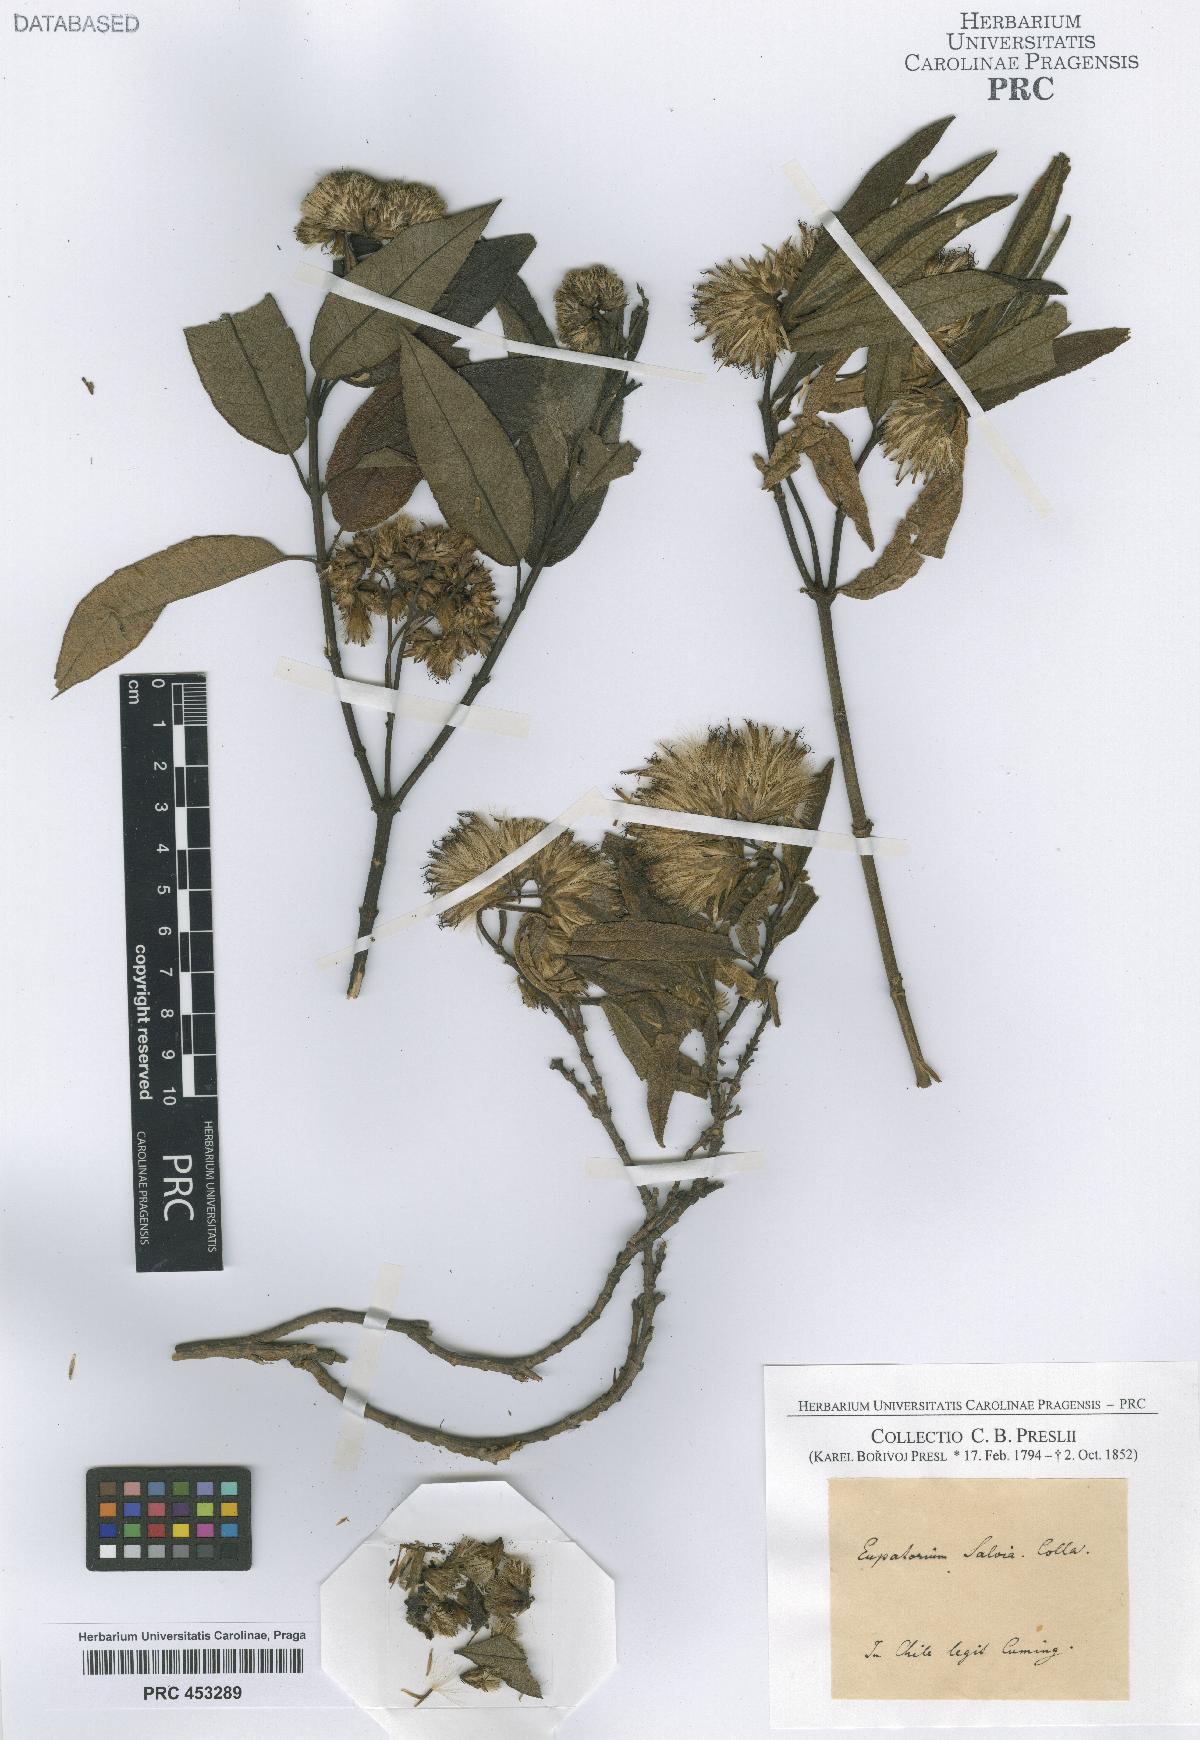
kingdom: Plantae
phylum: Tracheophyta
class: Magnoliopsida
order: Asterales
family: Asteraceae
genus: Eupatorium
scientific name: Eupatorium
